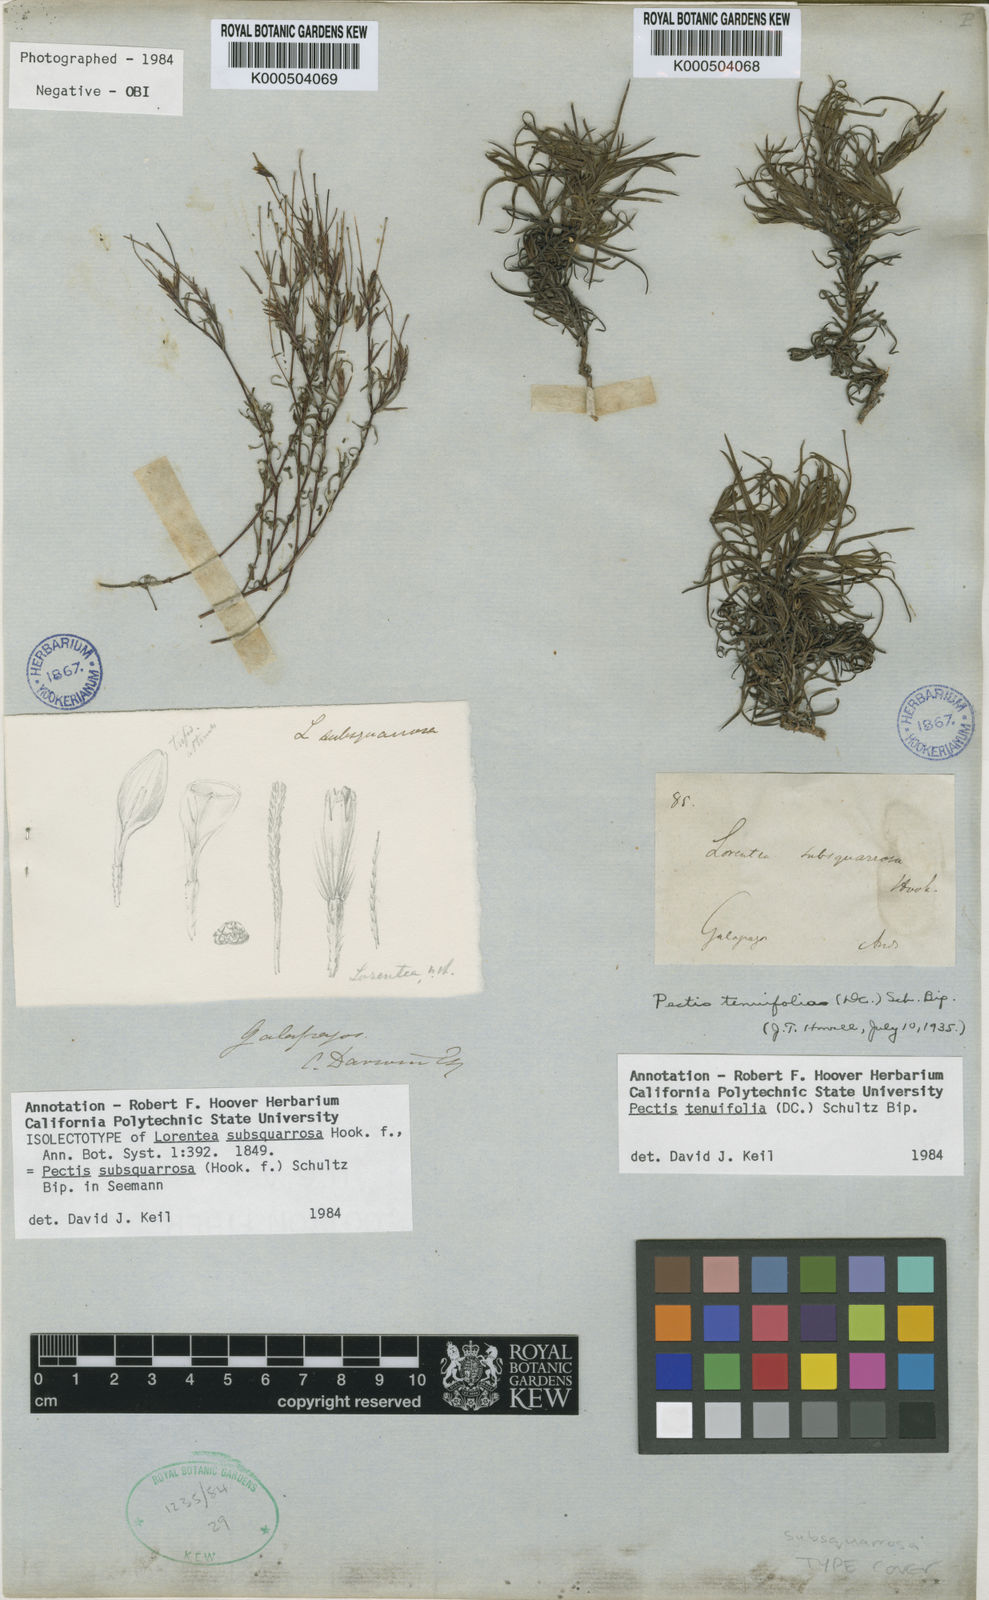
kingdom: Plantae
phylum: Tracheophyta
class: Magnoliopsida
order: Asterales
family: Asteraceae
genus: Pectis
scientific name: Pectis subsquarrosa
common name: Pectis
